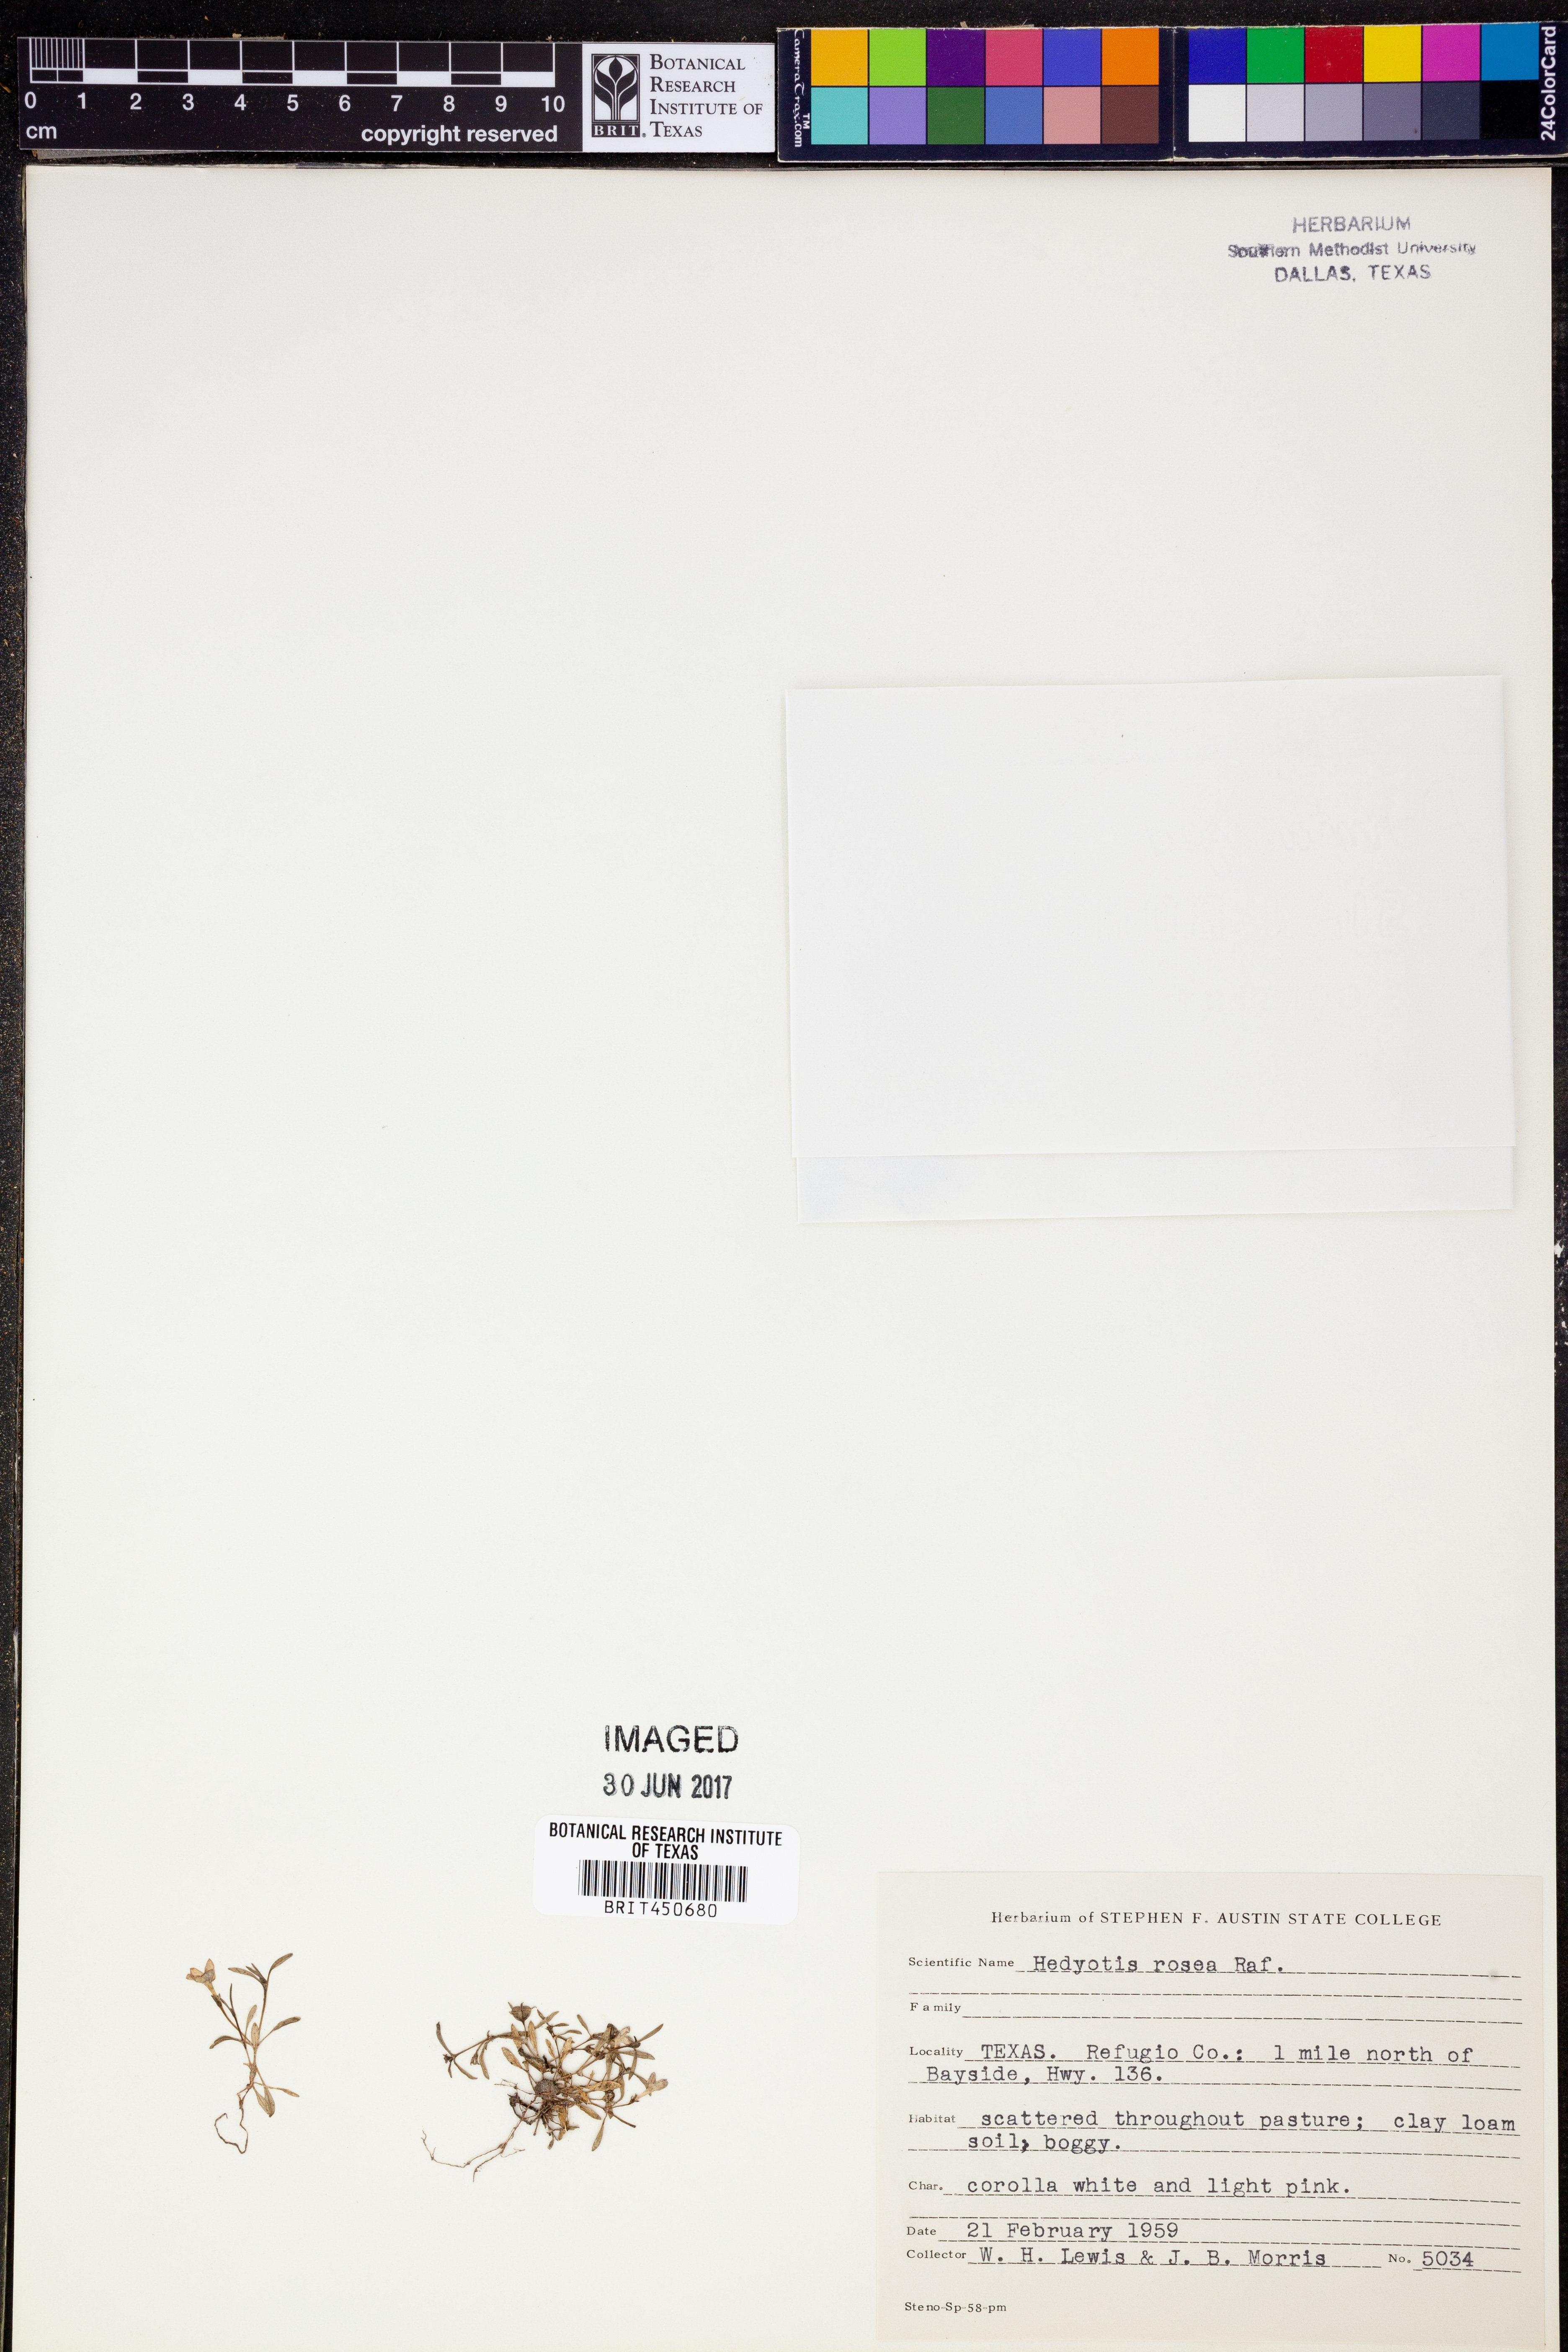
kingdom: Plantae
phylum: Tracheophyta
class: Magnoliopsida
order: Gentianales
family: Rubiaceae
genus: Houstonia
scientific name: Houstonia rosea
